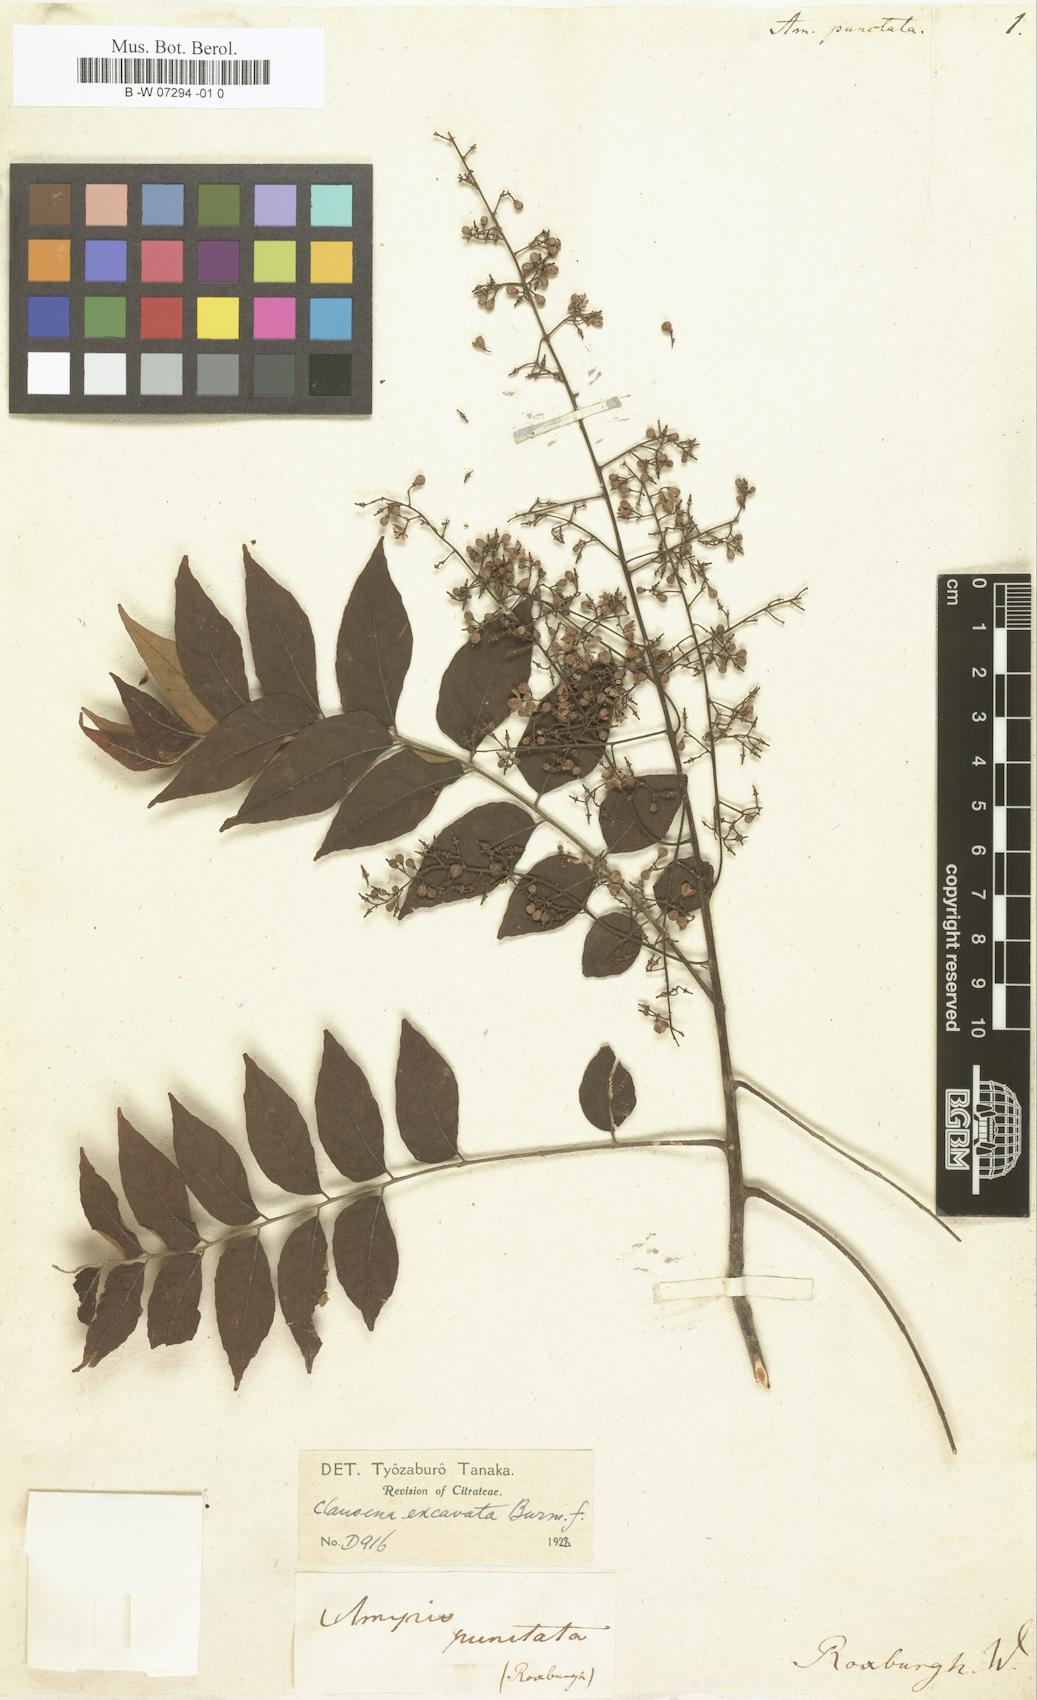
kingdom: Plantae
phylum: Tracheophyta
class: Magnoliopsida
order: Sapindales
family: Rutaceae
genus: Clausena
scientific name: Clausena excavata
